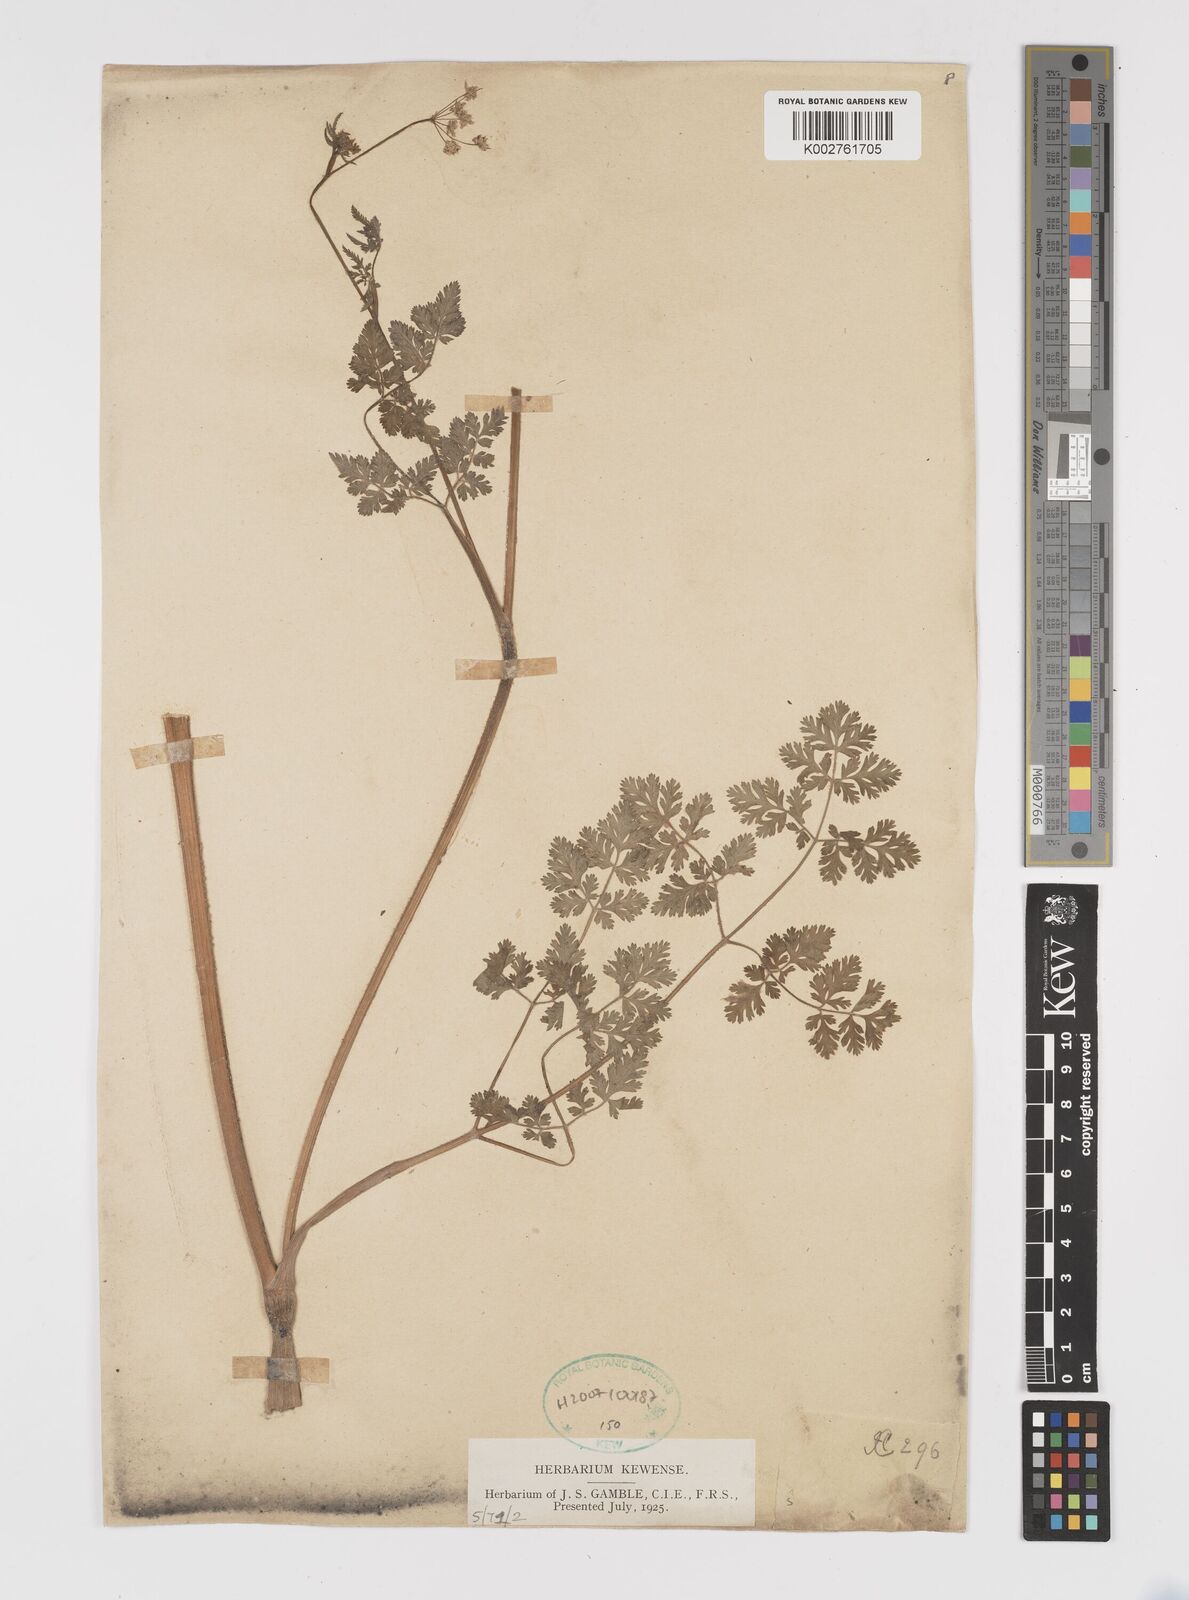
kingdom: Plantae
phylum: Tracheophyta
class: Magnoliopsida
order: Apiales
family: Apiaceae
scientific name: Apiaceae
